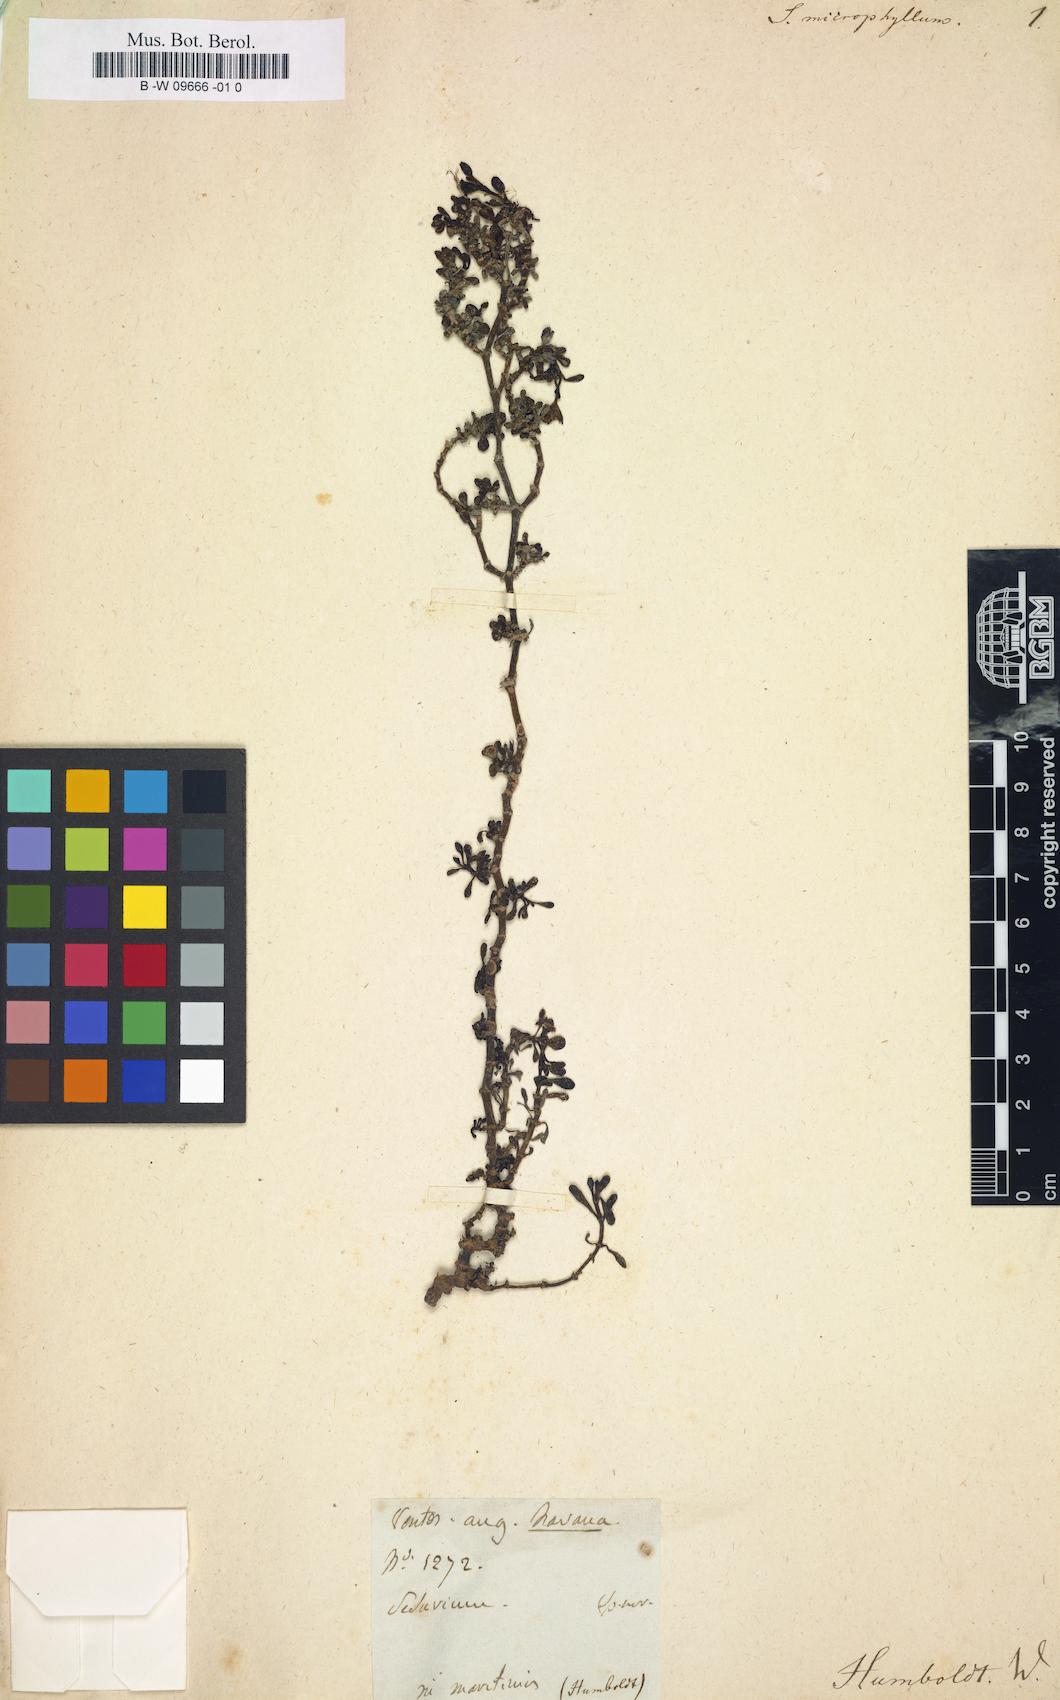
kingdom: Plantae
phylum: Tracheophyta
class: Magnoliopsida
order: Caryophyllales
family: Aizoaceae
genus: Sesuvium
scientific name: Sesuvium microphyllum
